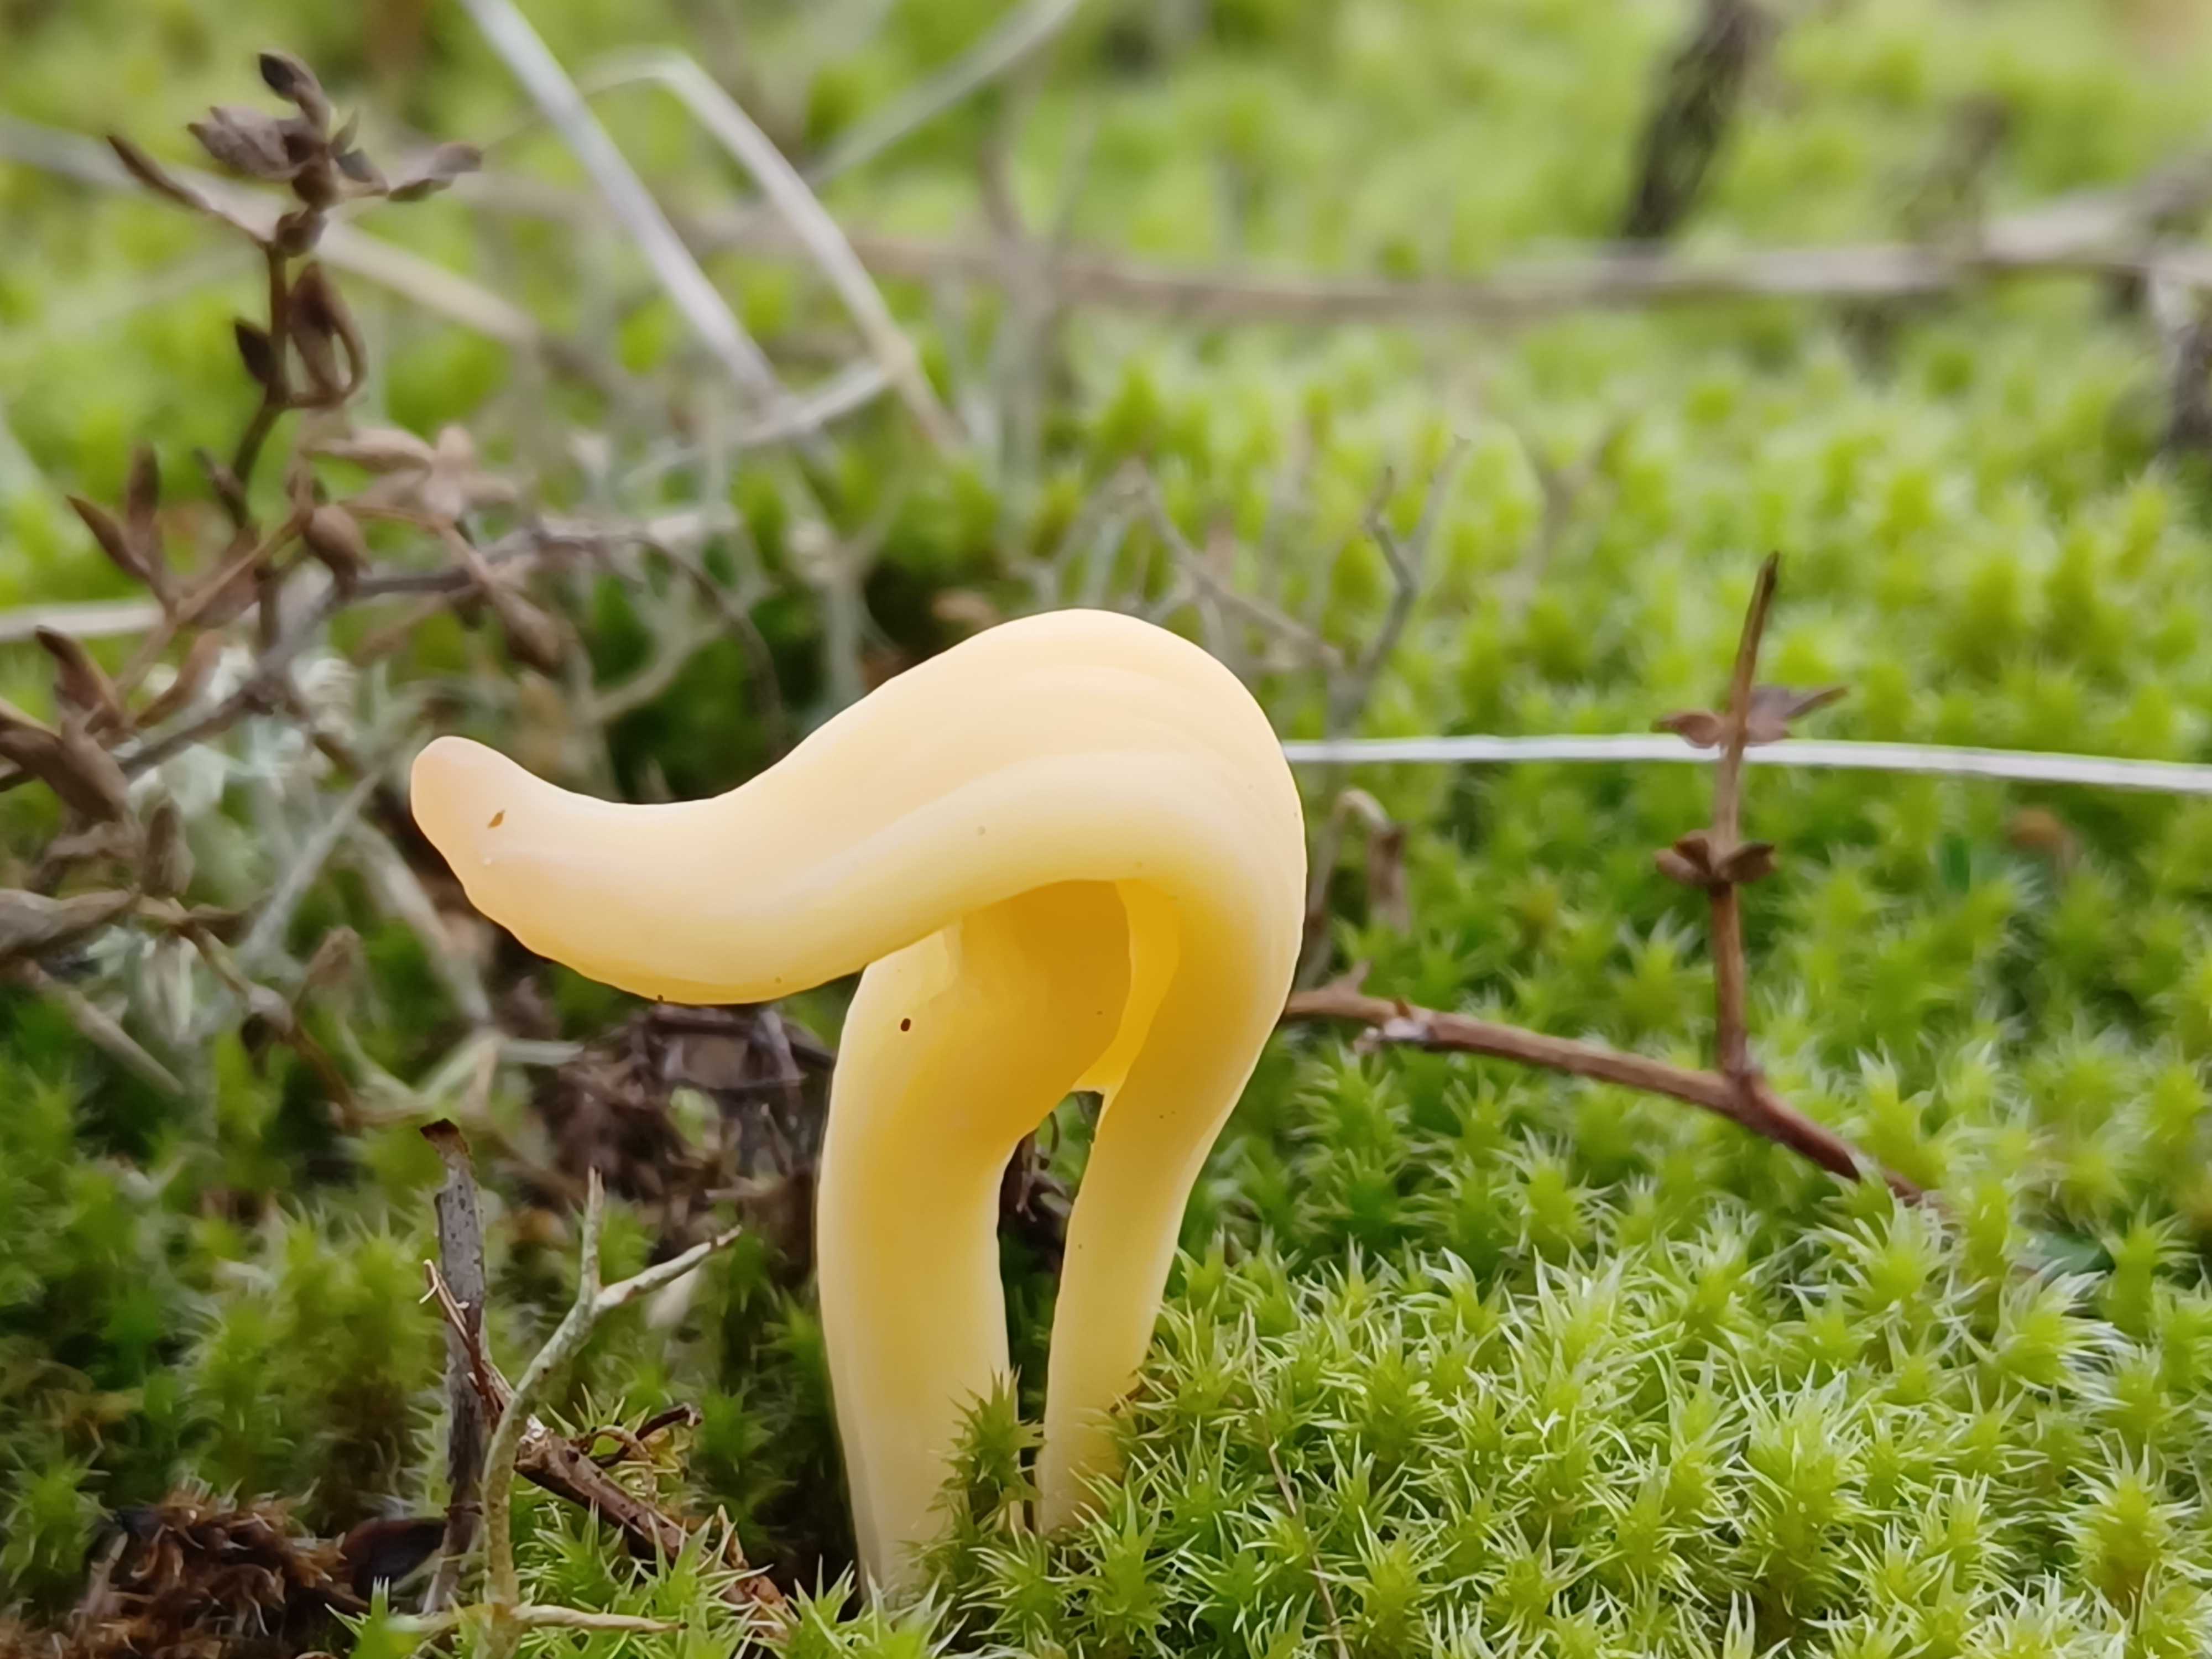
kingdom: Fungi
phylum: Basidiomycota
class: Agaricomycetes
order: Agaricales
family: Clavariaceae
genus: Clavaria
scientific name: Clavaria argillacea
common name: lerfarvet køllesvamp
